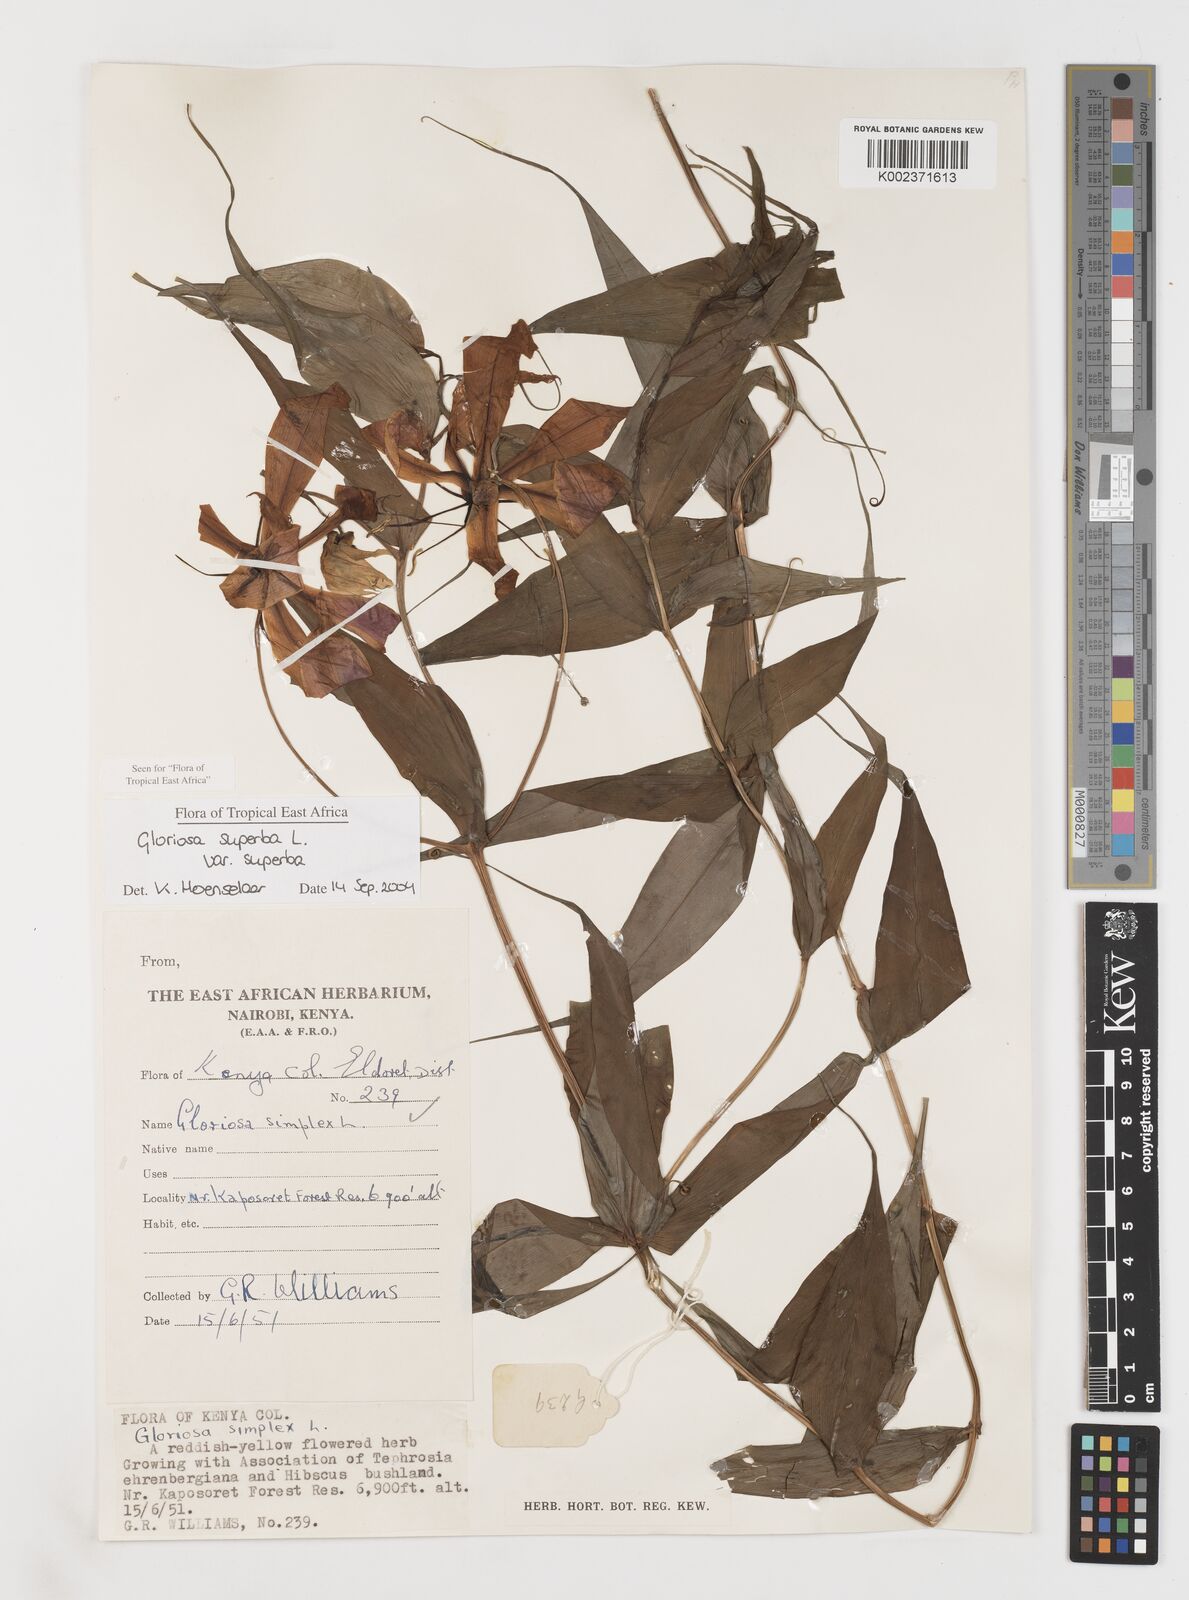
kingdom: Plantae
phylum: Tracheophyta
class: Liliopsida
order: Liliales
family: Colchicaceae
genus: Gloriosa
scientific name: Gloriosa simplex
